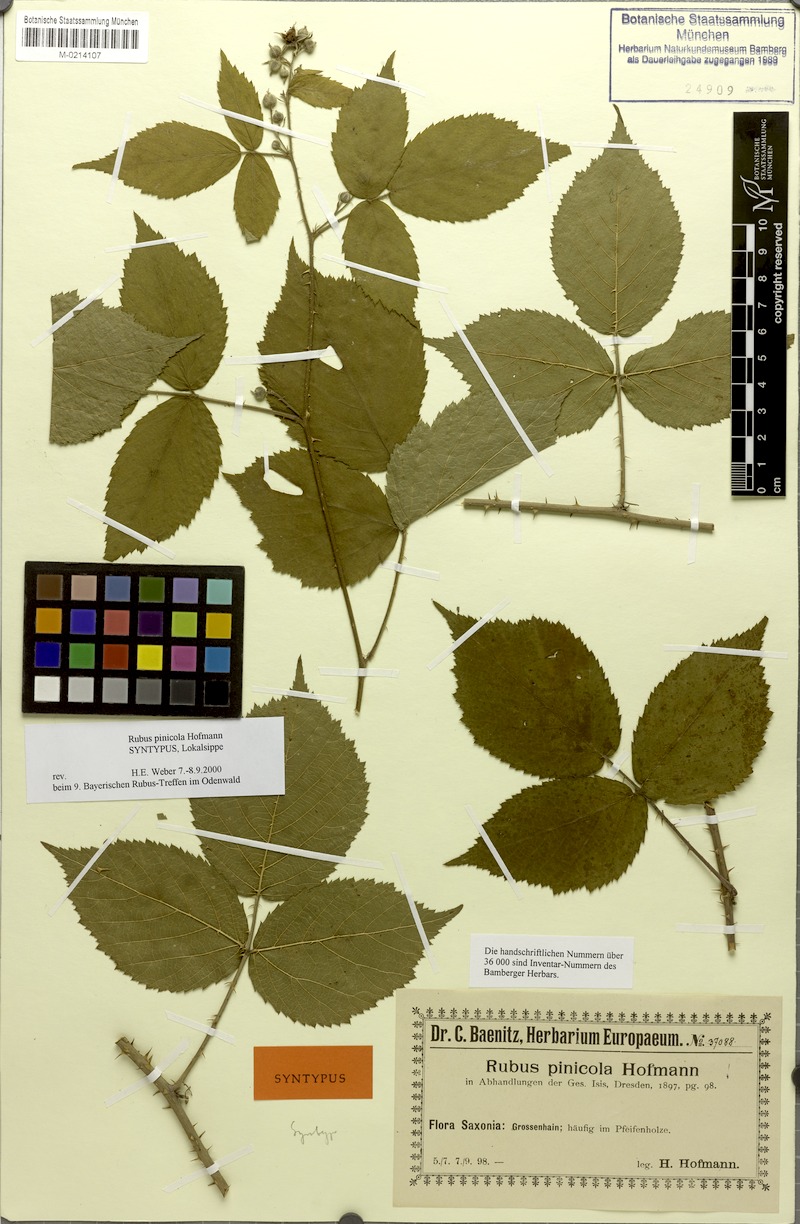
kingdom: Plantae
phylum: Tracheophyta
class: Magnoliopsida
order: Rosales
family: Rosaceae
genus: Rubus
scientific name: Rubus pinicola
